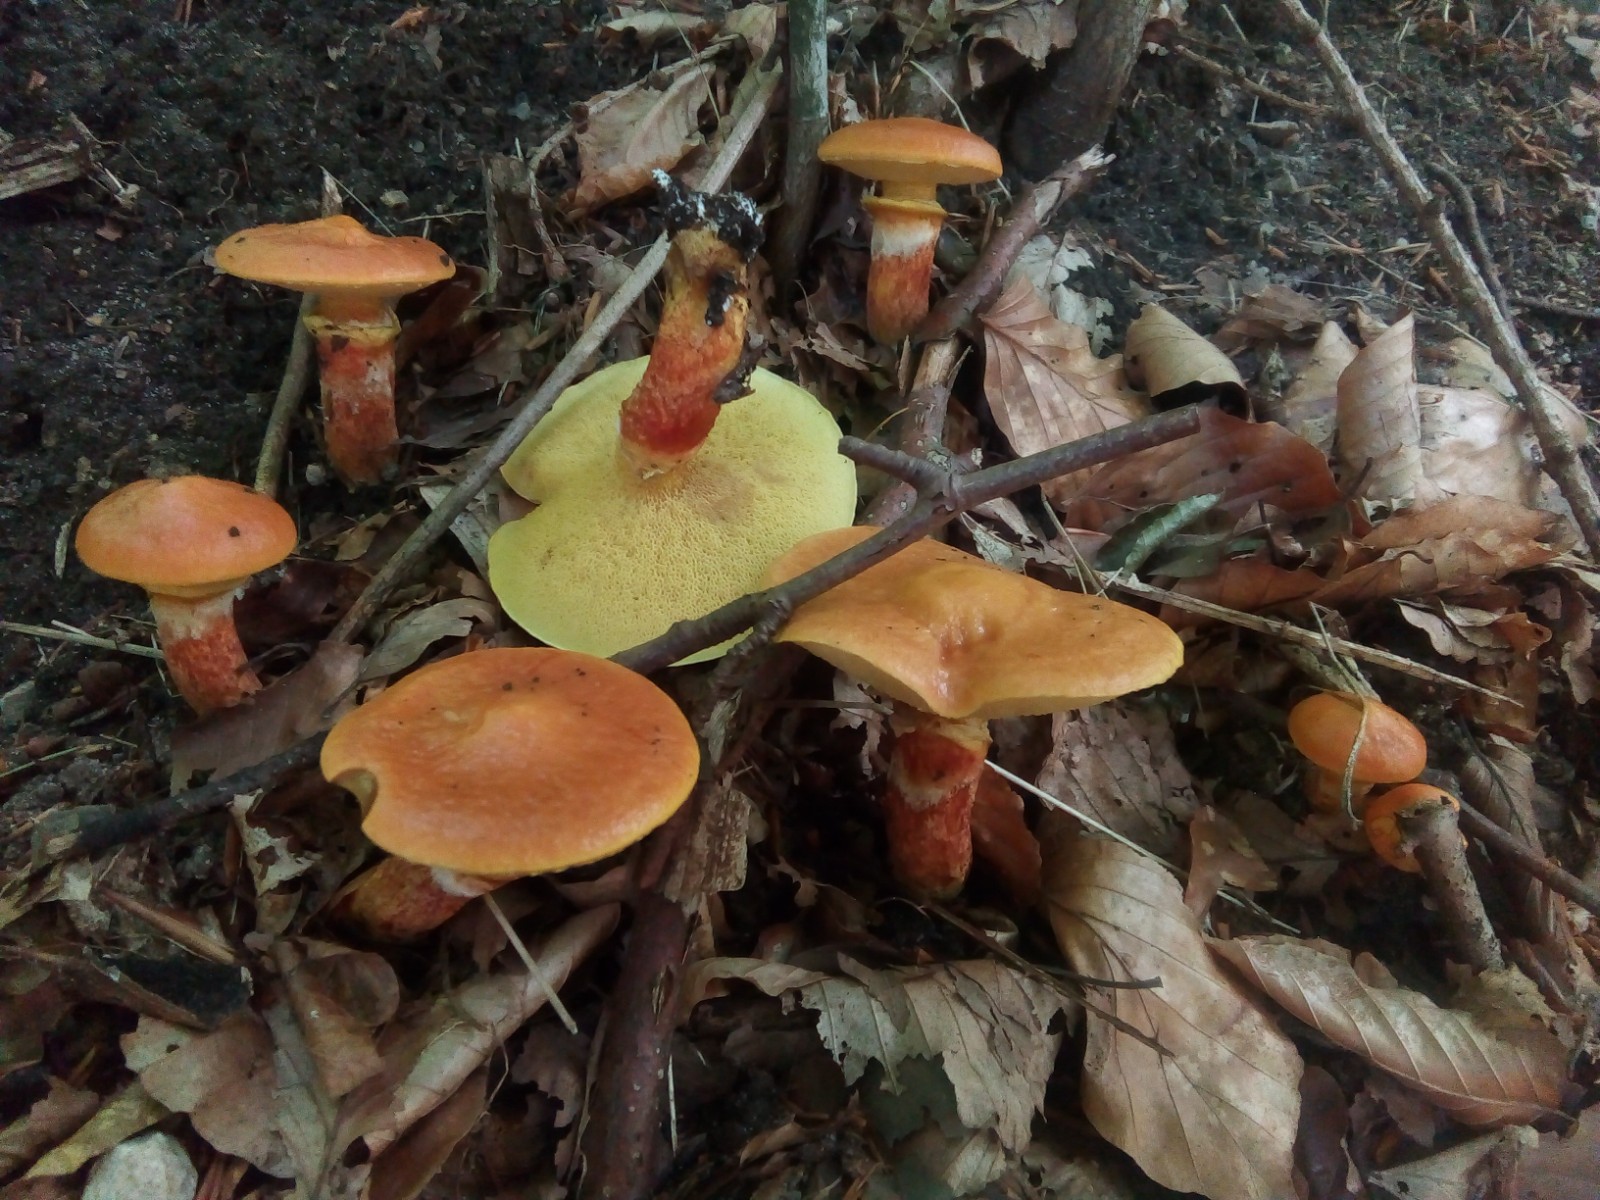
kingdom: Fungi
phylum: Basidiomycota
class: Agaricomycetes
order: Boletales
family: Suillaceae
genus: Suillus
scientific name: Suillus grevillei
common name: lærke-slimrørhat
